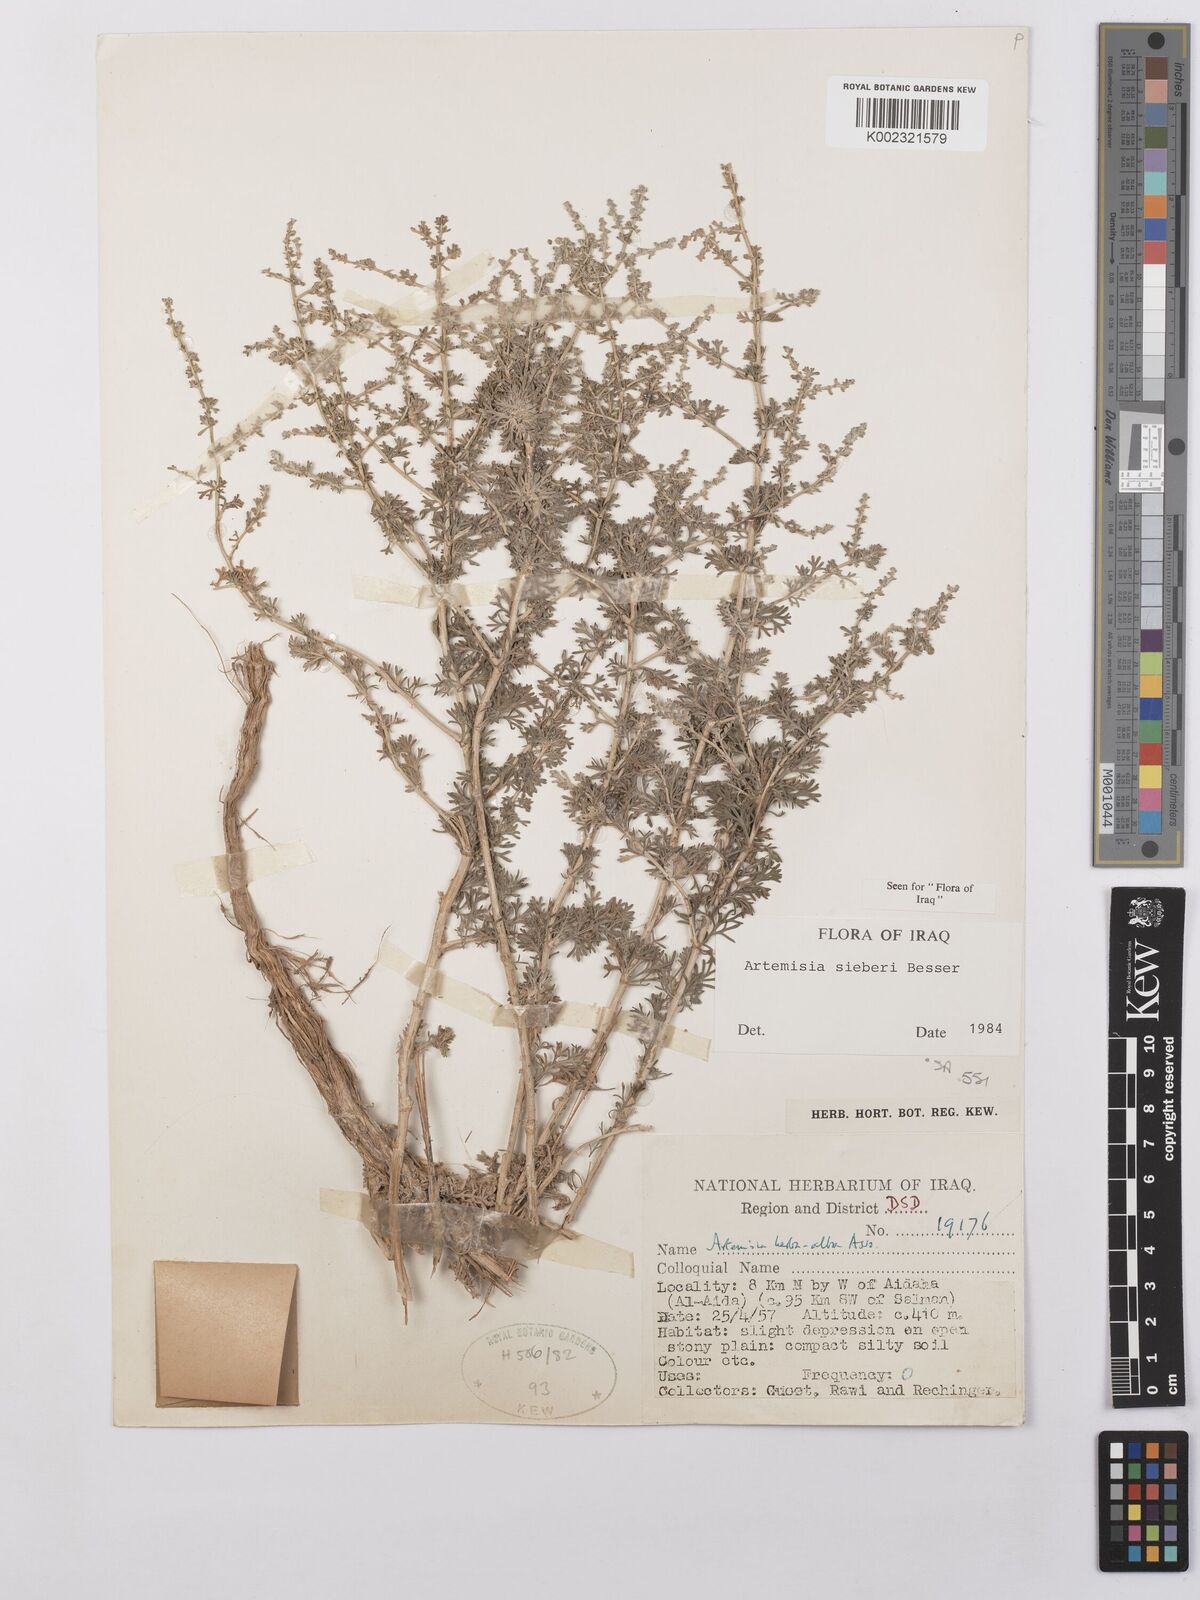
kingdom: Plantae
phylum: Tracheophyta
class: Magnoliopsida
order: Asterales
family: Asteraceae
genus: Artemisia
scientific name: Artemisia sieberi
